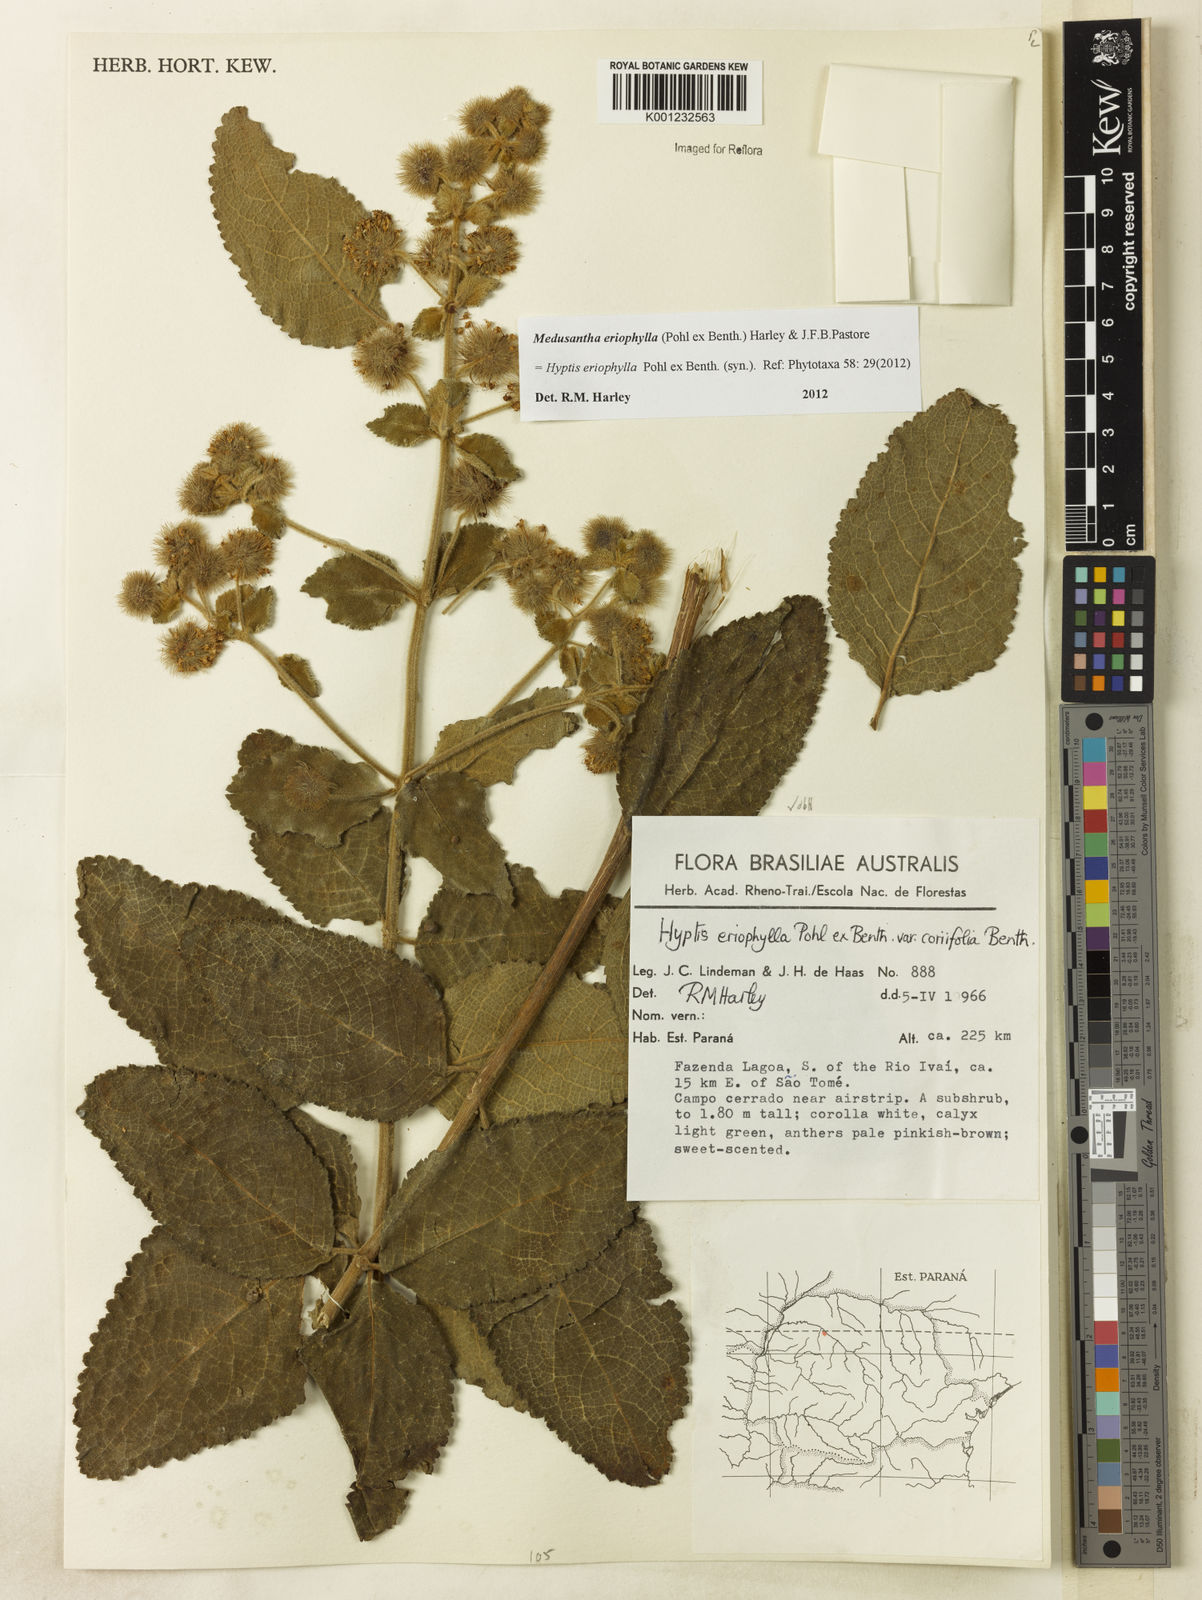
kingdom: Plantae
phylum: Tracheophyta
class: Magnoliopsida
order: Lamiales
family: Lamiaceae
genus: Medusantha
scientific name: Medusantha eriophylla
